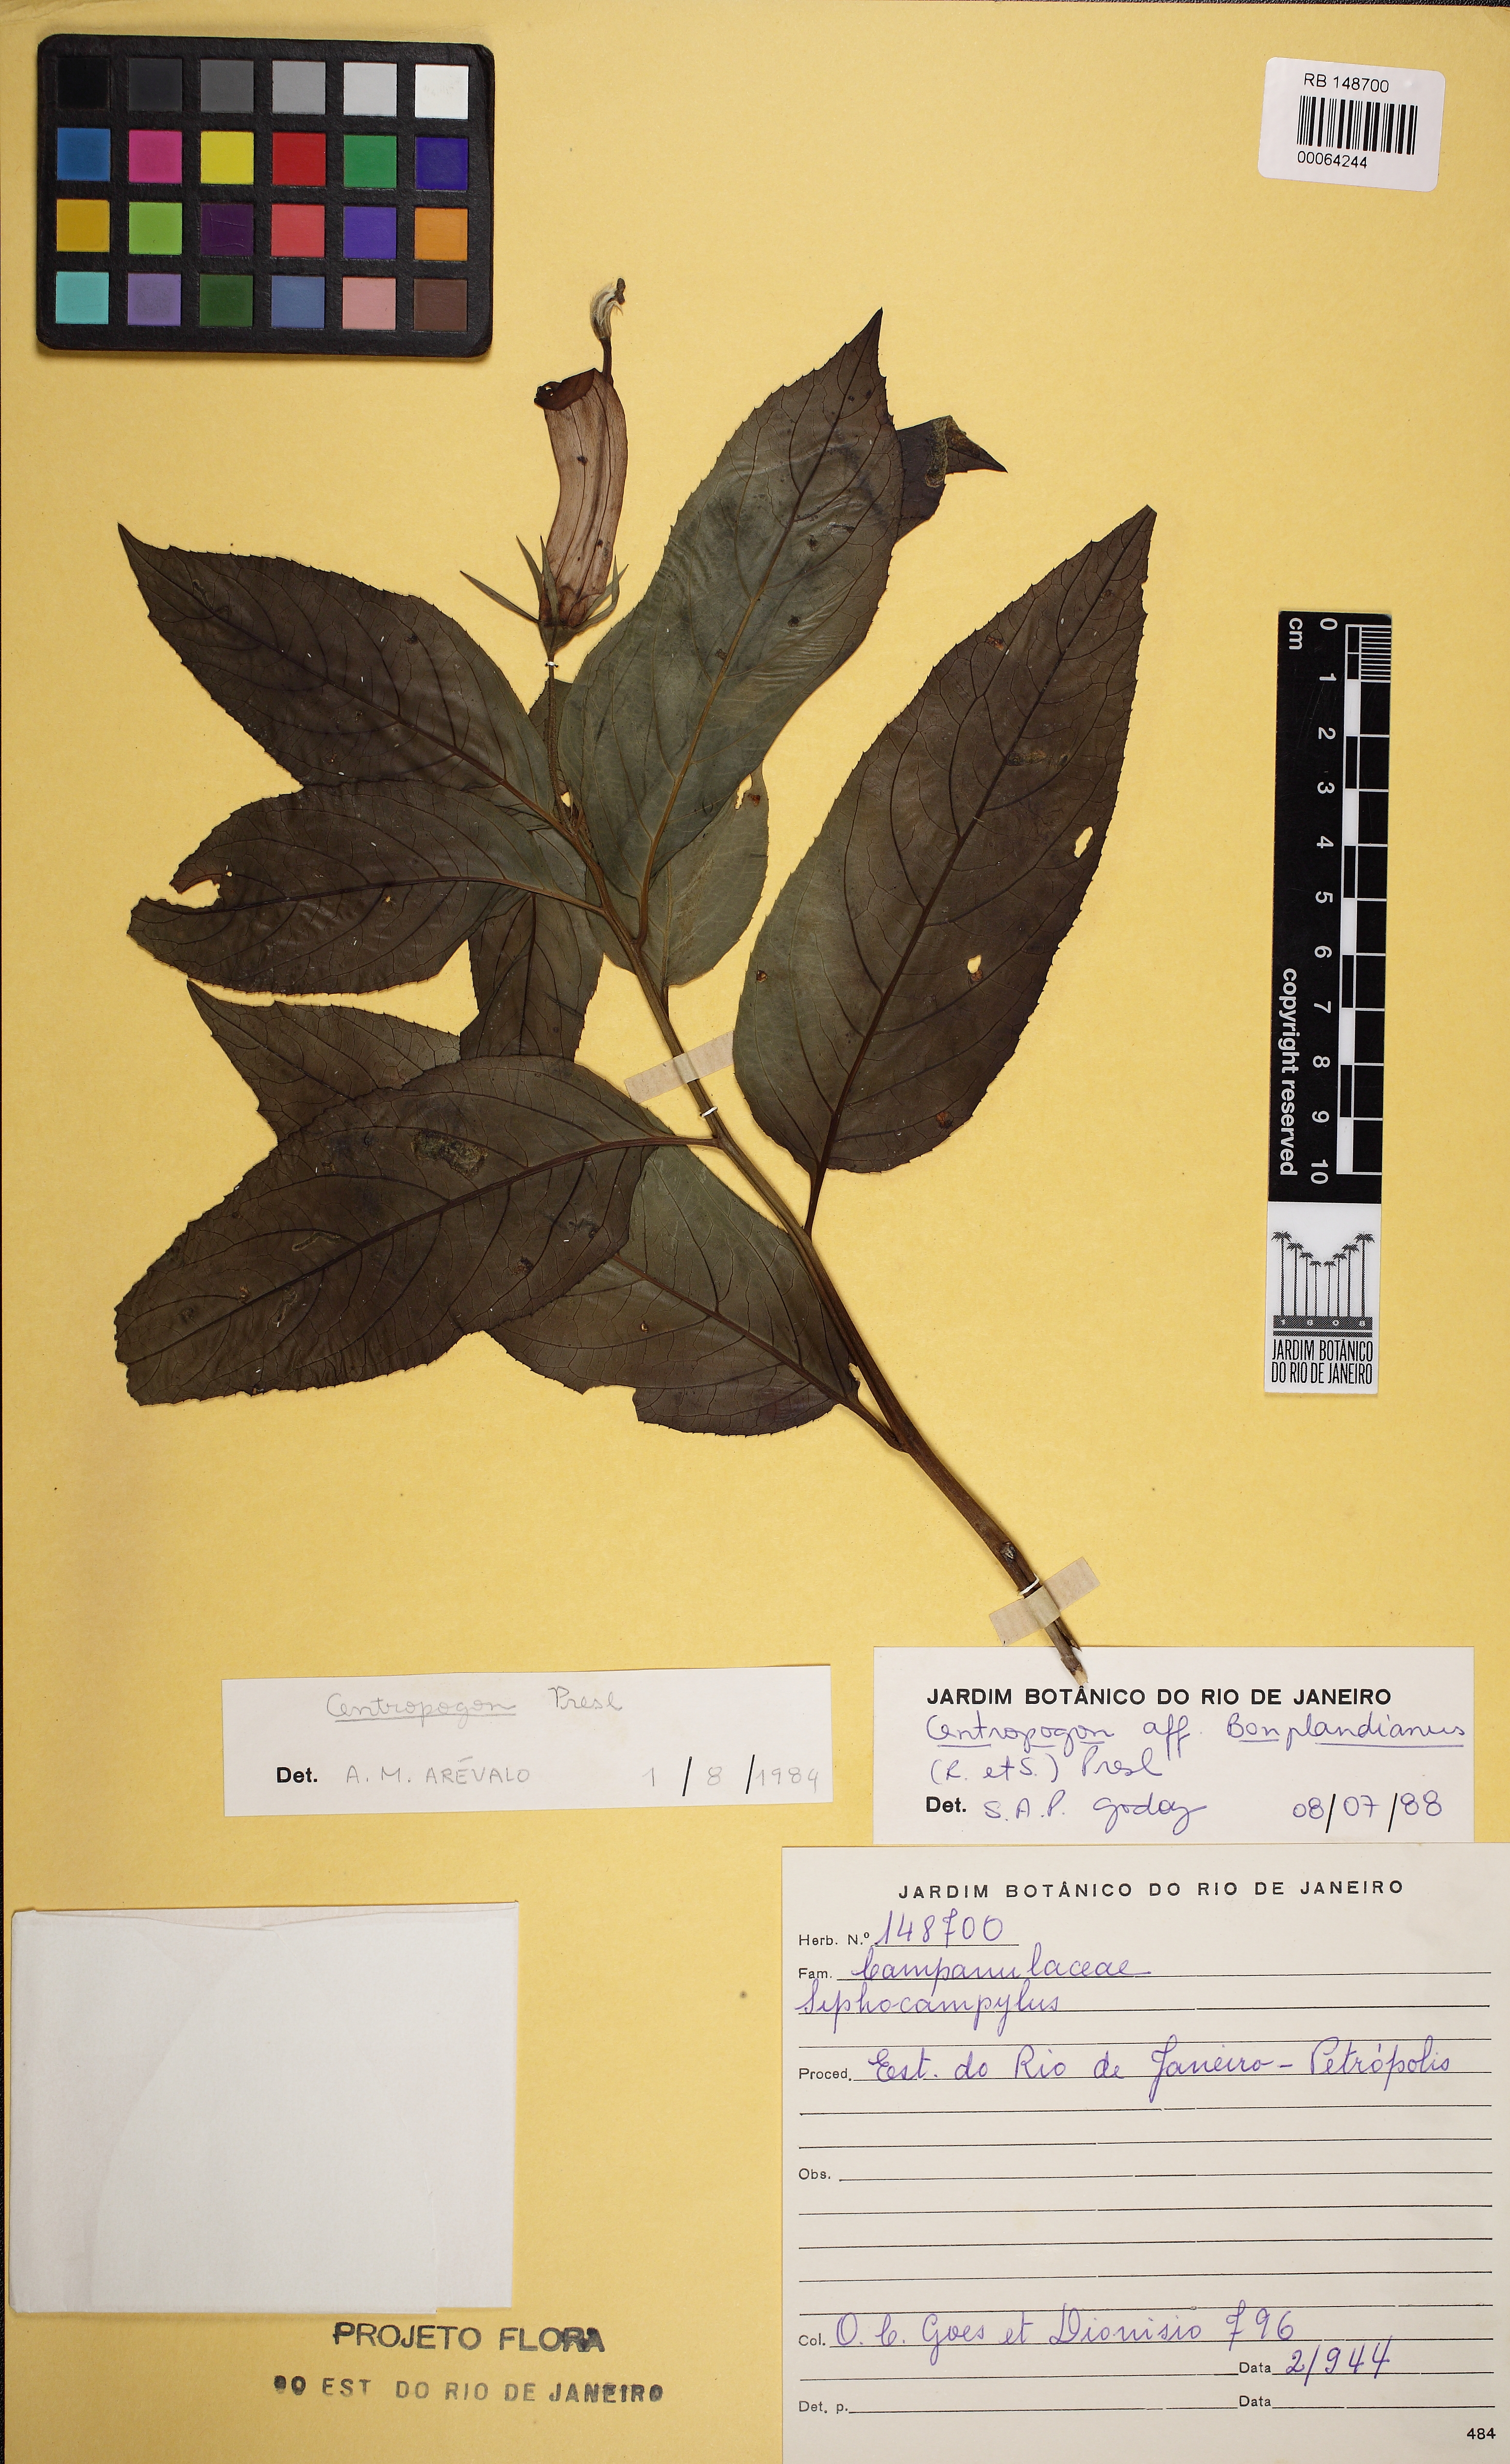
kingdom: Plantae
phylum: Tracheophyta
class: Magnoliopsida
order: Asterales
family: Campanulaceae
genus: Centropogon
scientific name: Centropogon cornutus
